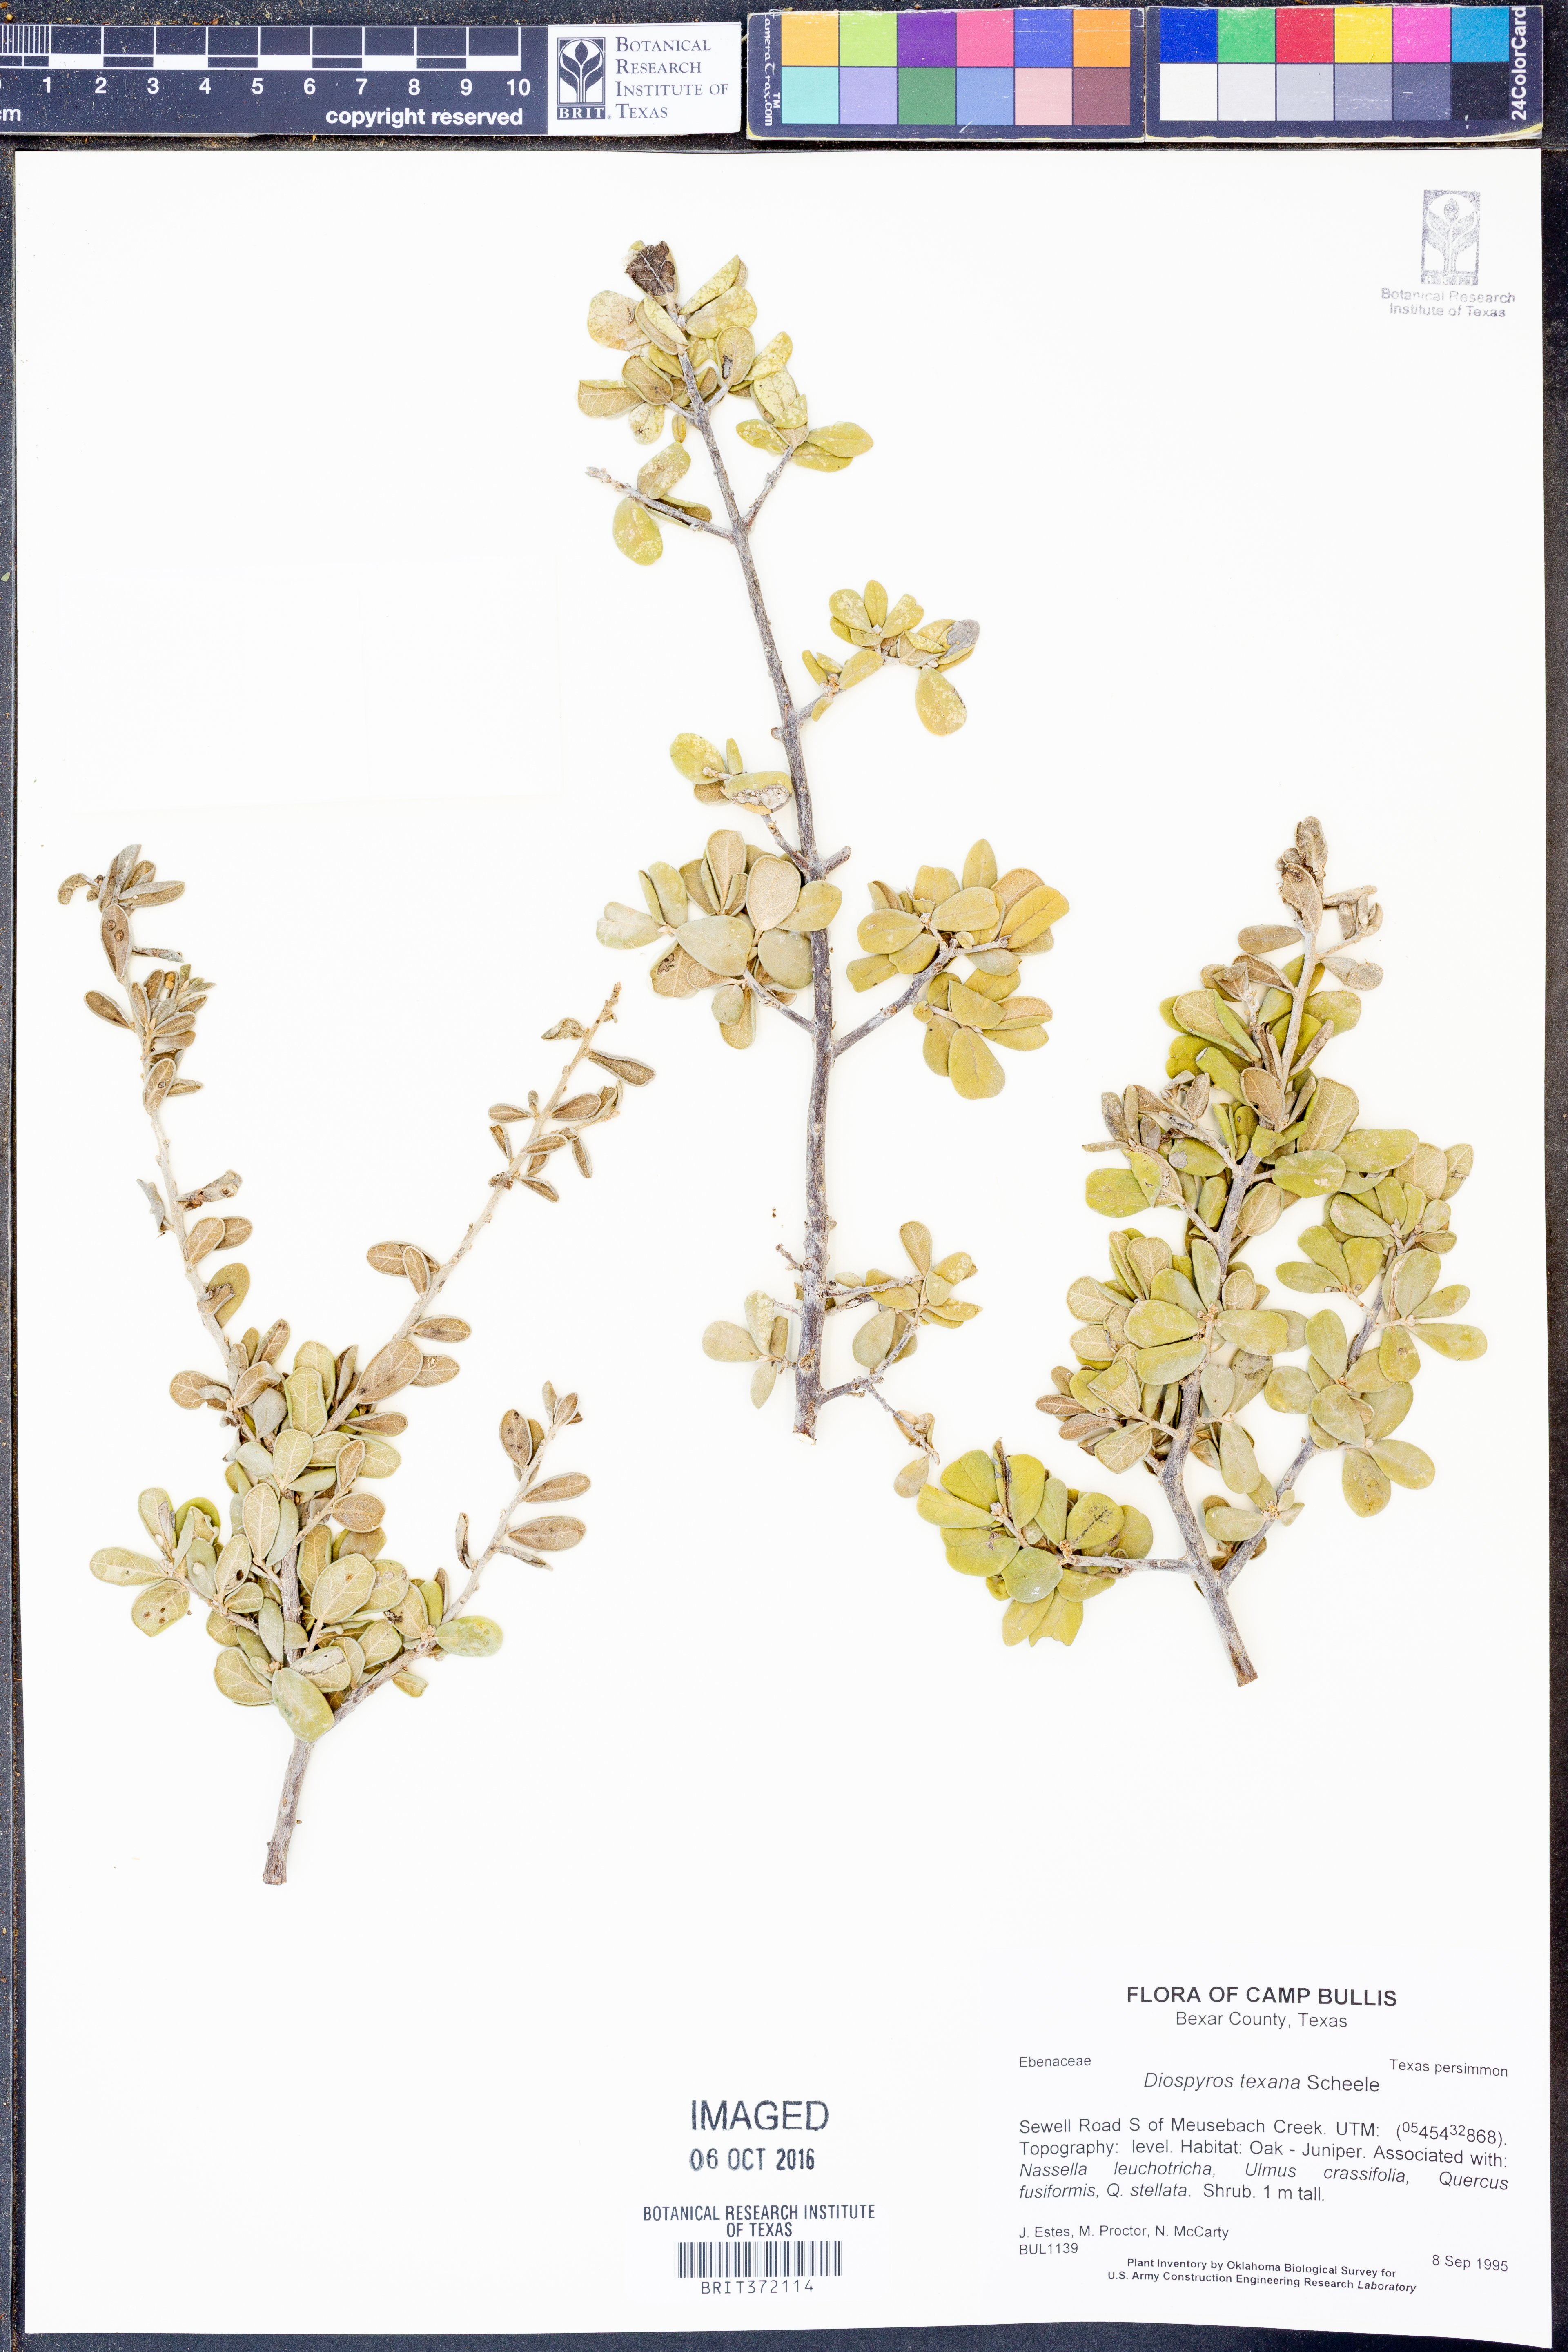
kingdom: Plantae
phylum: Tracheophyta
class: Magnoliopsida
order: Ericales
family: Ebenaceae
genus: Diospyros
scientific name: Diospyros texana
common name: Texas persimmon
